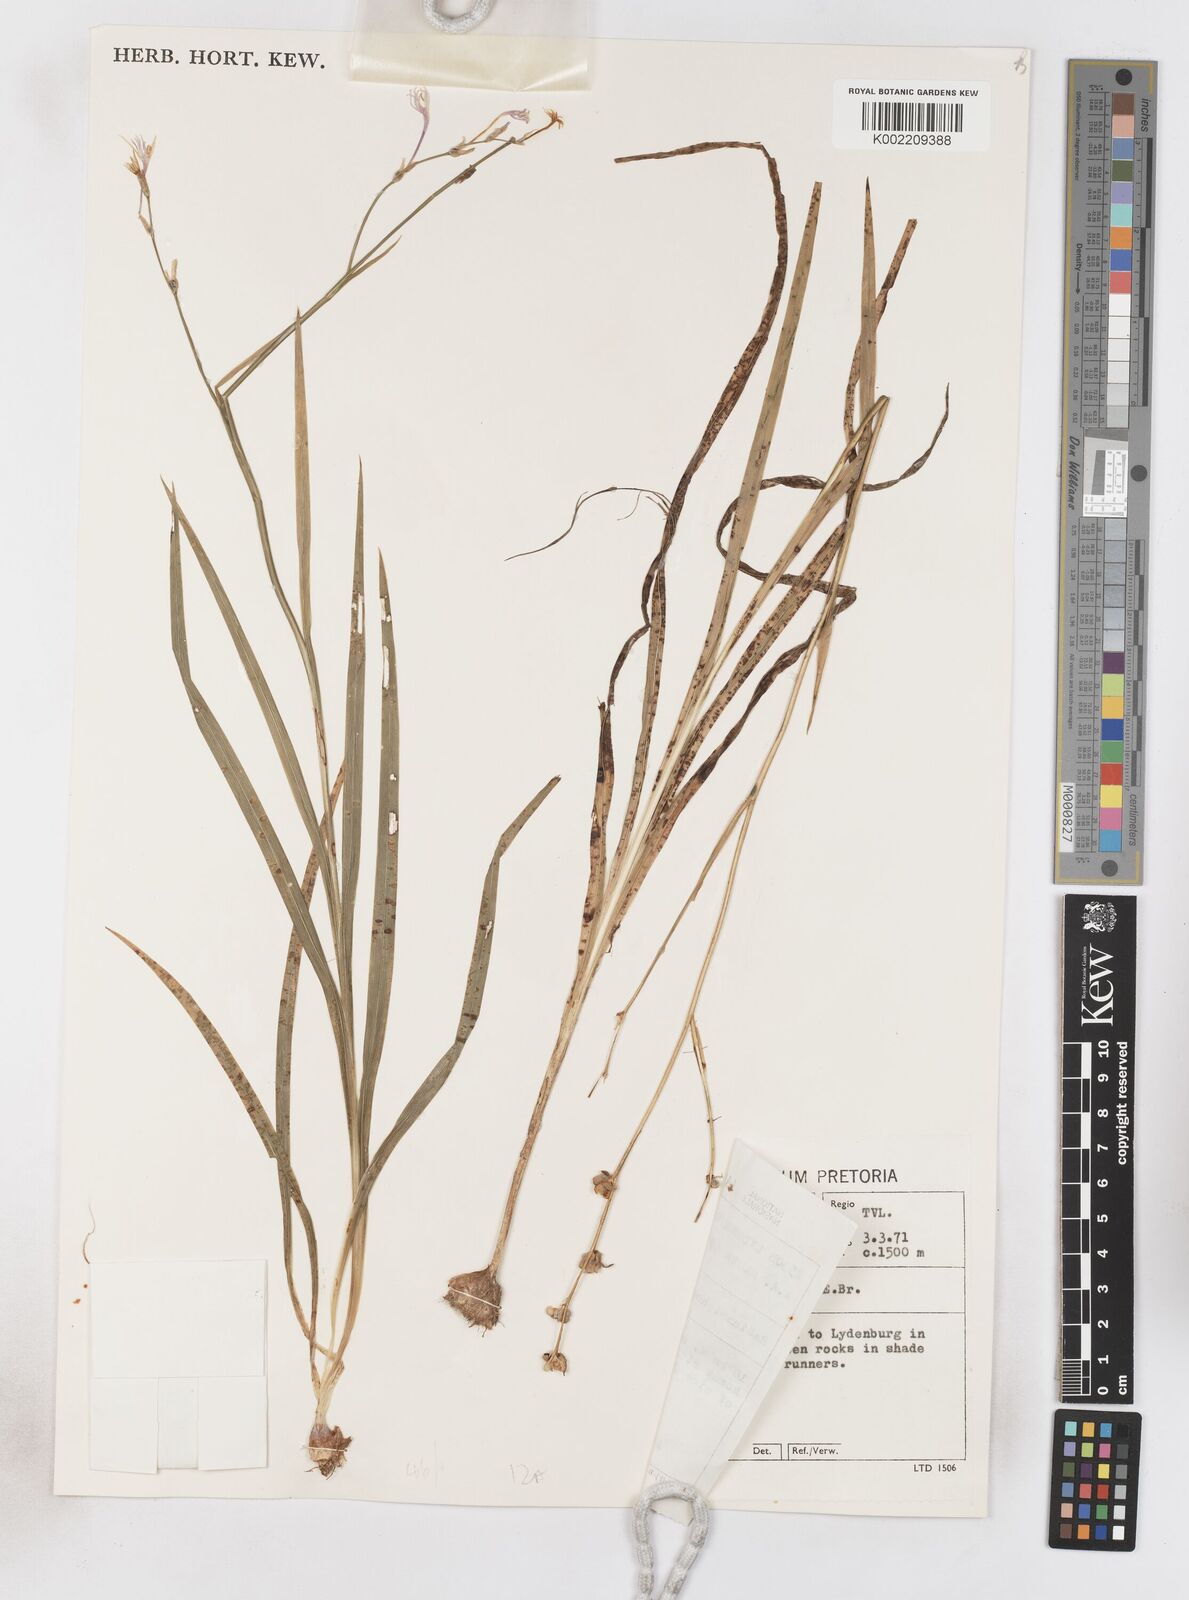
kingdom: Plantae
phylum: Tracheophyta
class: Liliopsida
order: Asparagales
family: Iridaceae
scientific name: Iridaceae
